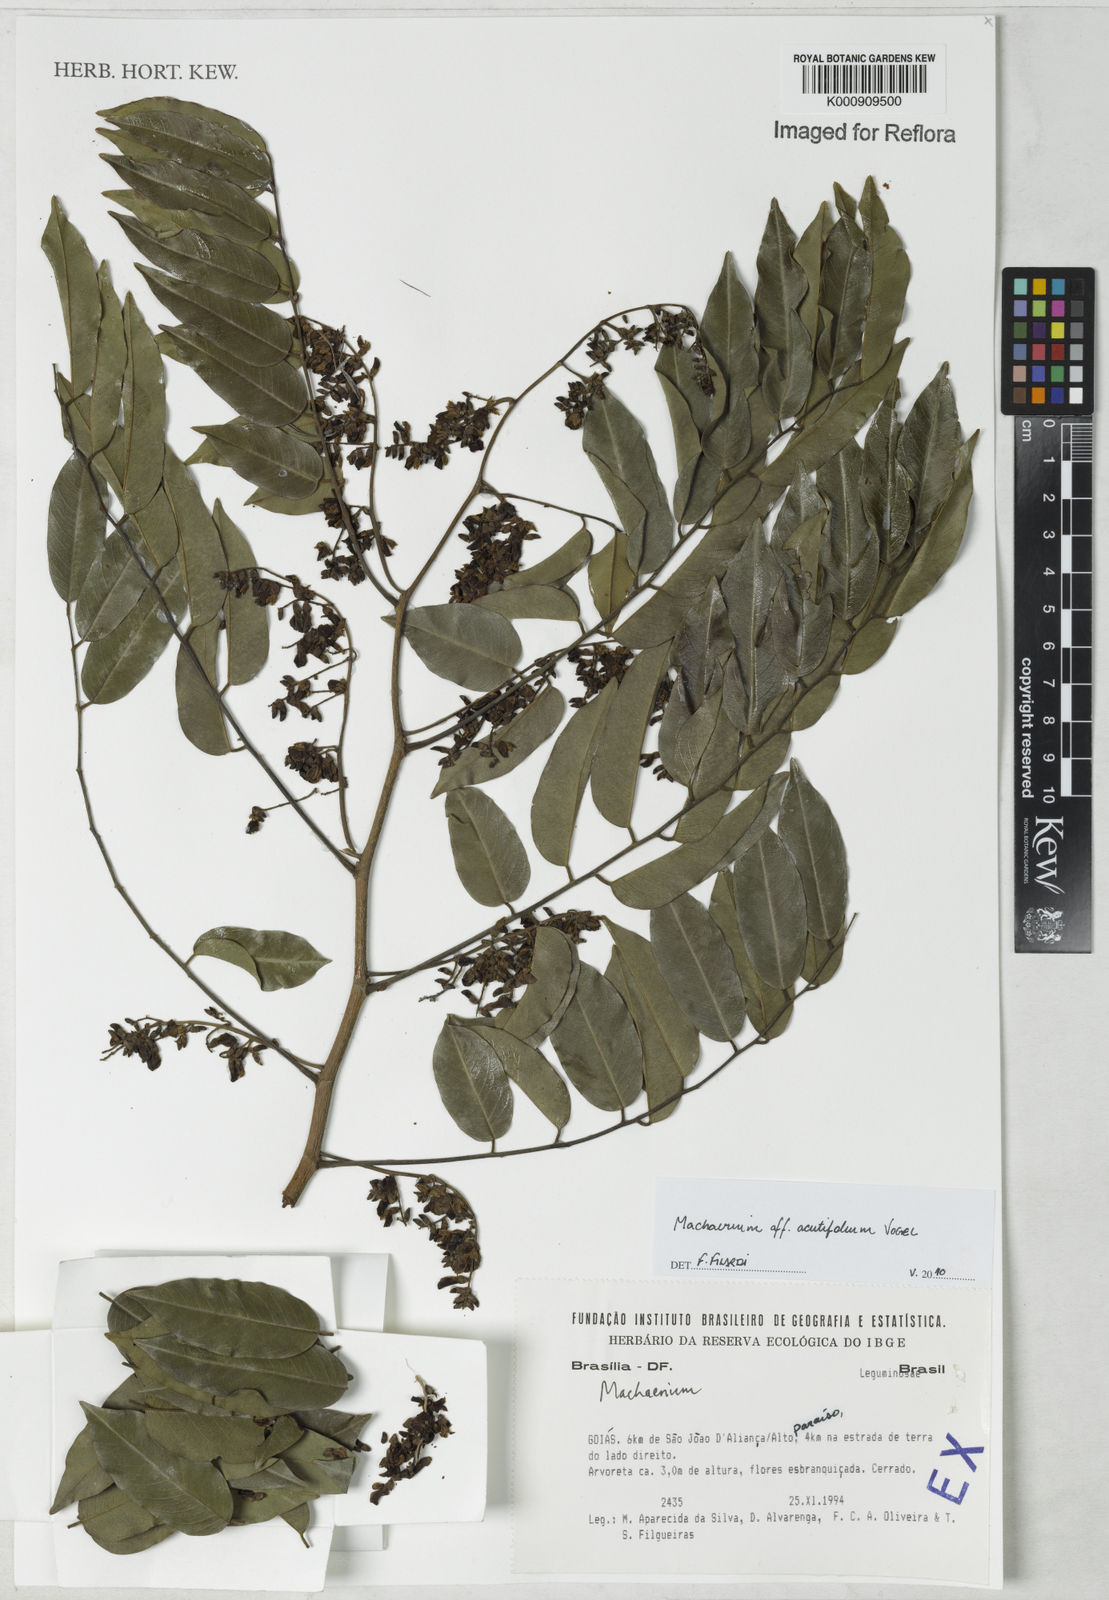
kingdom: Plantae
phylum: Tracheophyta
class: Magnoliopsida
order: Fabales
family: Fabaceae
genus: Machaerium
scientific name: Machaerium acutifolium
